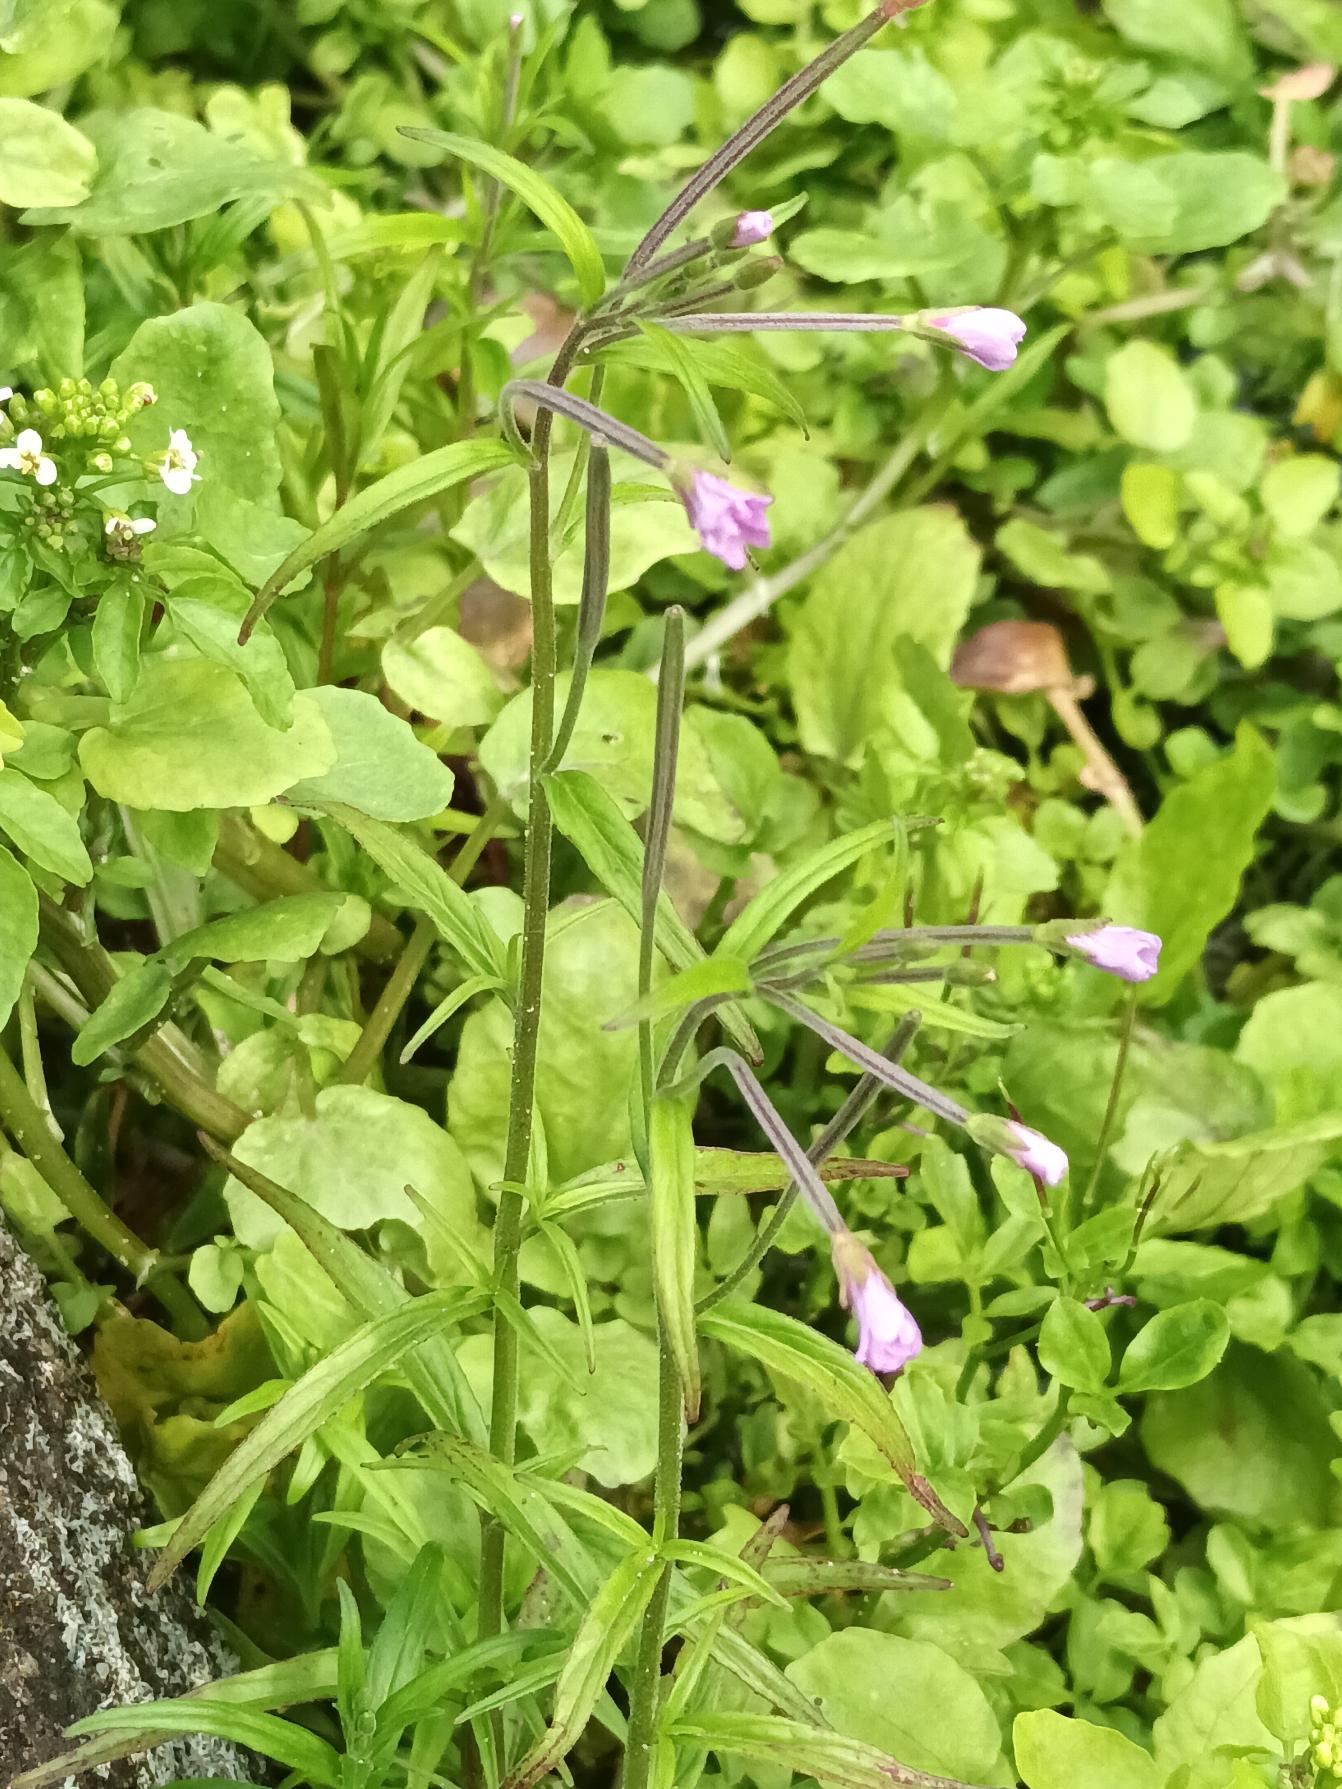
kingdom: Plantae
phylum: Tracheophyta
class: Magnoliopsida
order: Myrtales
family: Onagraceae
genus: Epilobium
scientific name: Epilobium palustre
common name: Kær-dueurt
